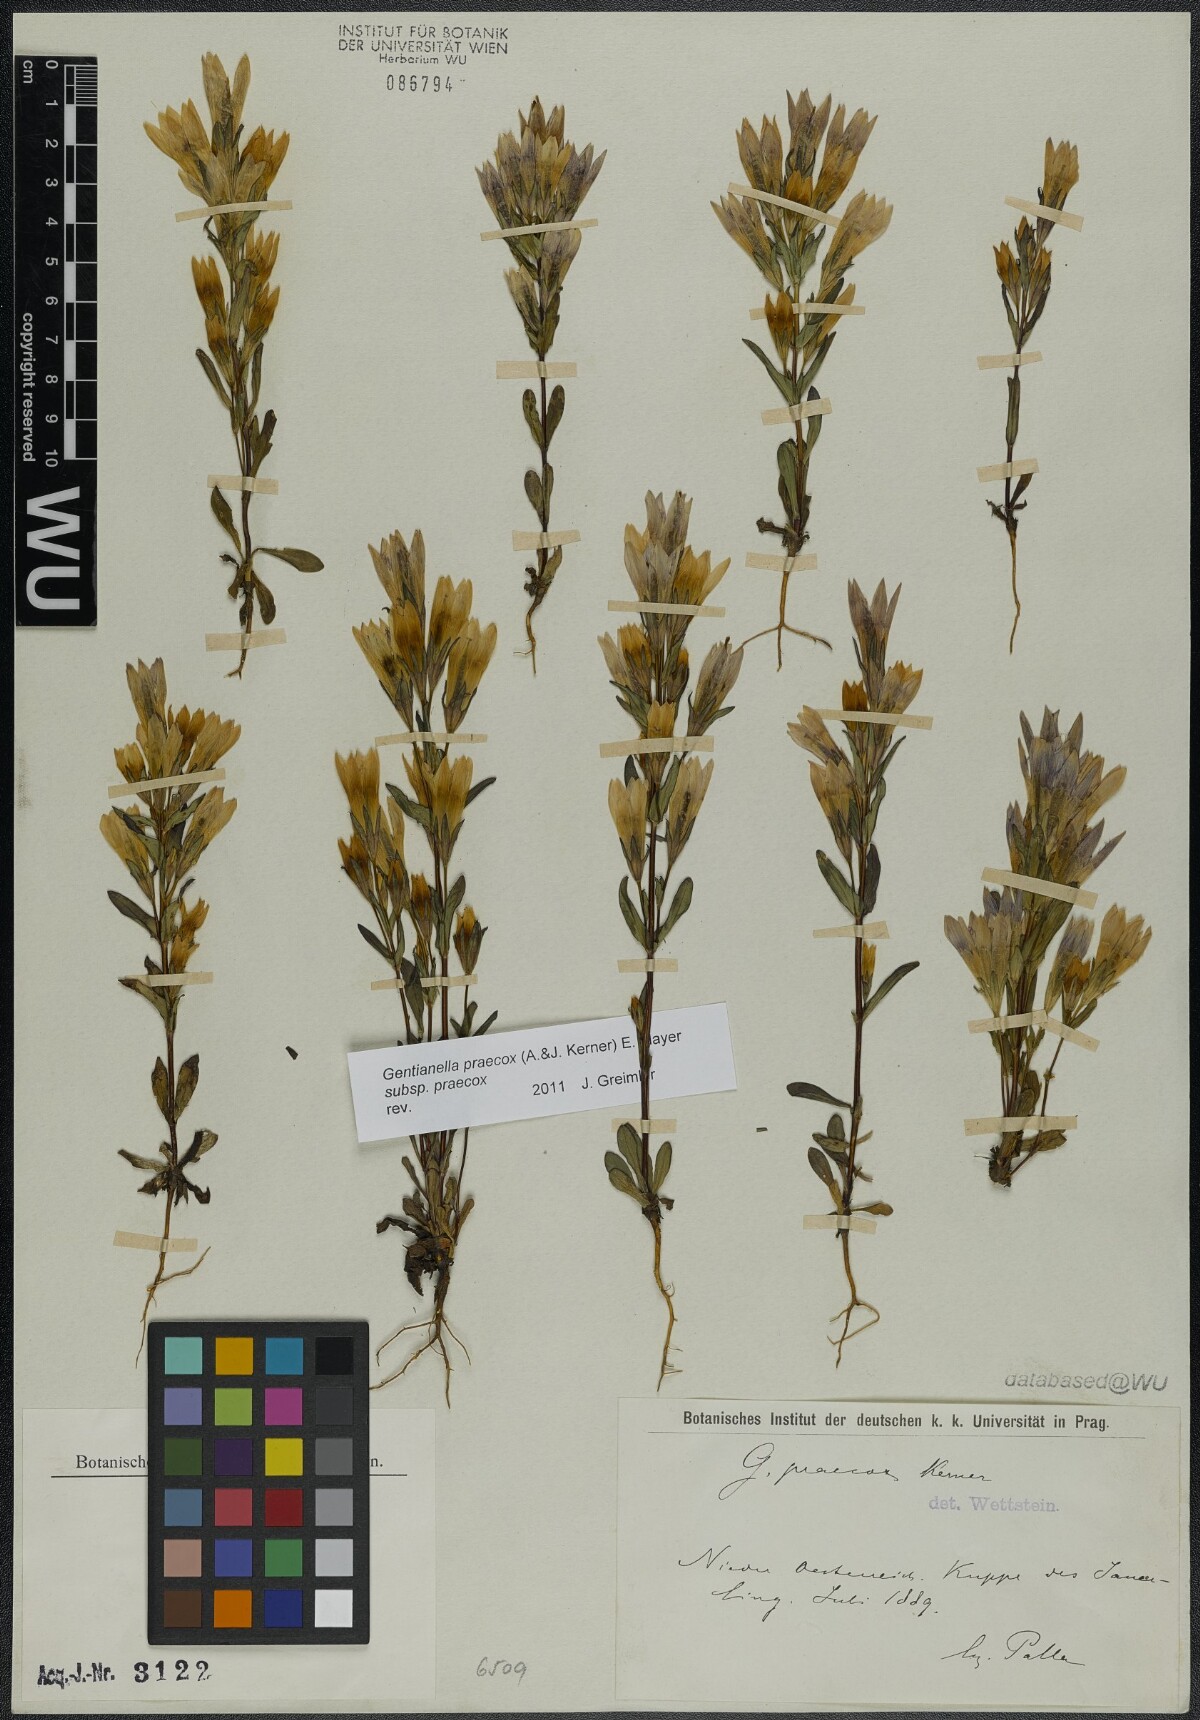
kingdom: Plantae
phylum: Tracheophyta
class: Magnoliopsida
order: Gentianales
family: Gentianaceae
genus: Gentianella
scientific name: Gentianella praecox
